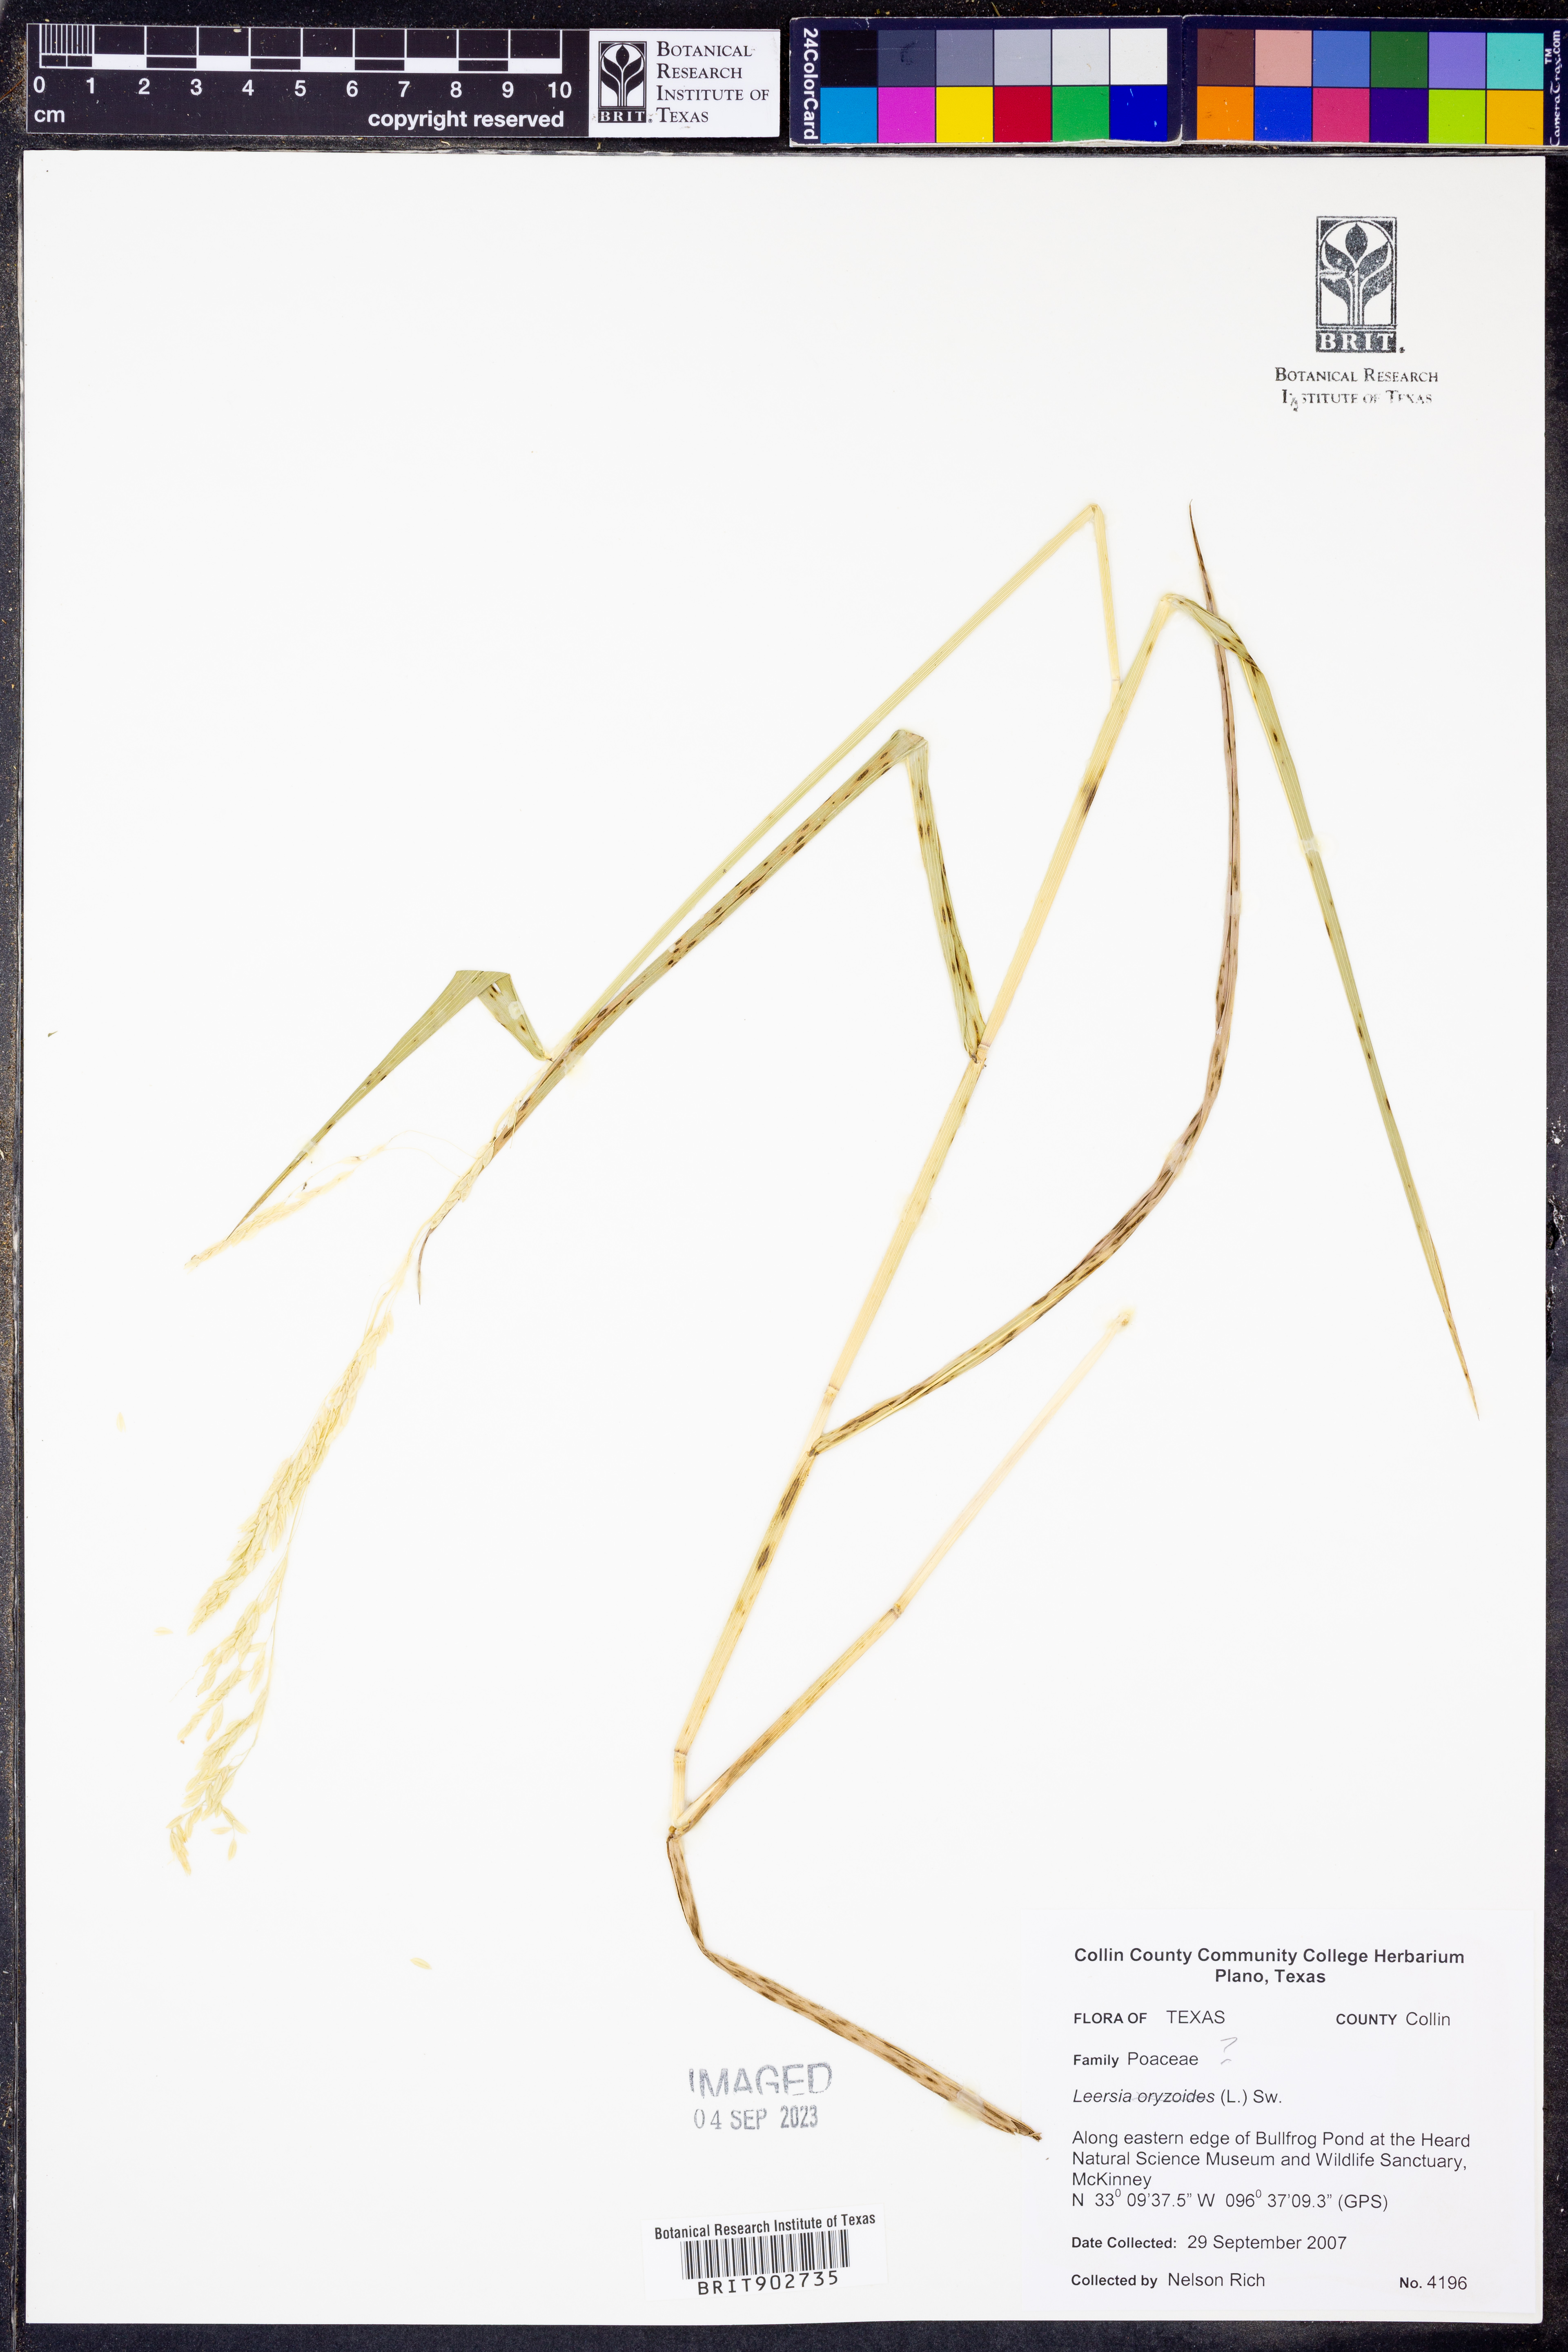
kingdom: Plantae
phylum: Tracheophyta
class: Liliopsida
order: Poales
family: Poaceae
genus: Leersia
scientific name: Leersia
